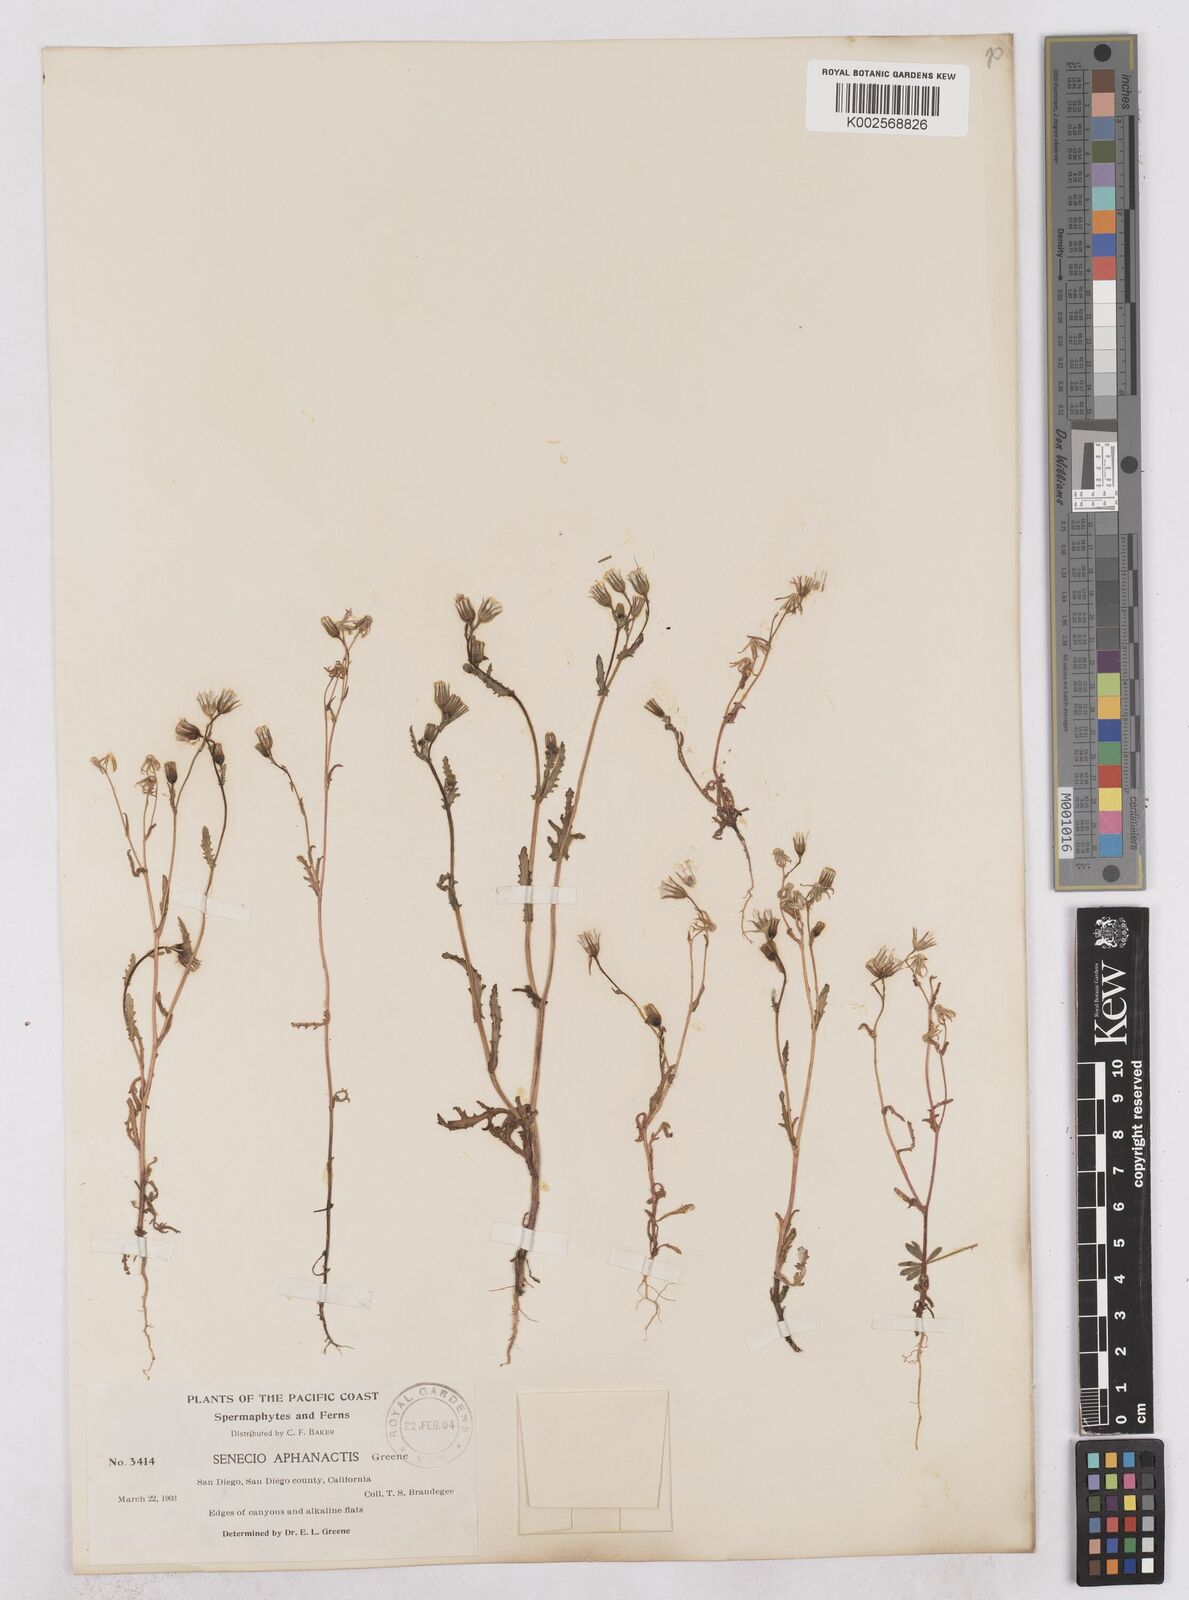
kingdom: Plantae
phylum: Tracheophyta
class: Magnoliopsida
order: Asterales
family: Asteraceae
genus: Senecio
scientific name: Senecio aphanactis
